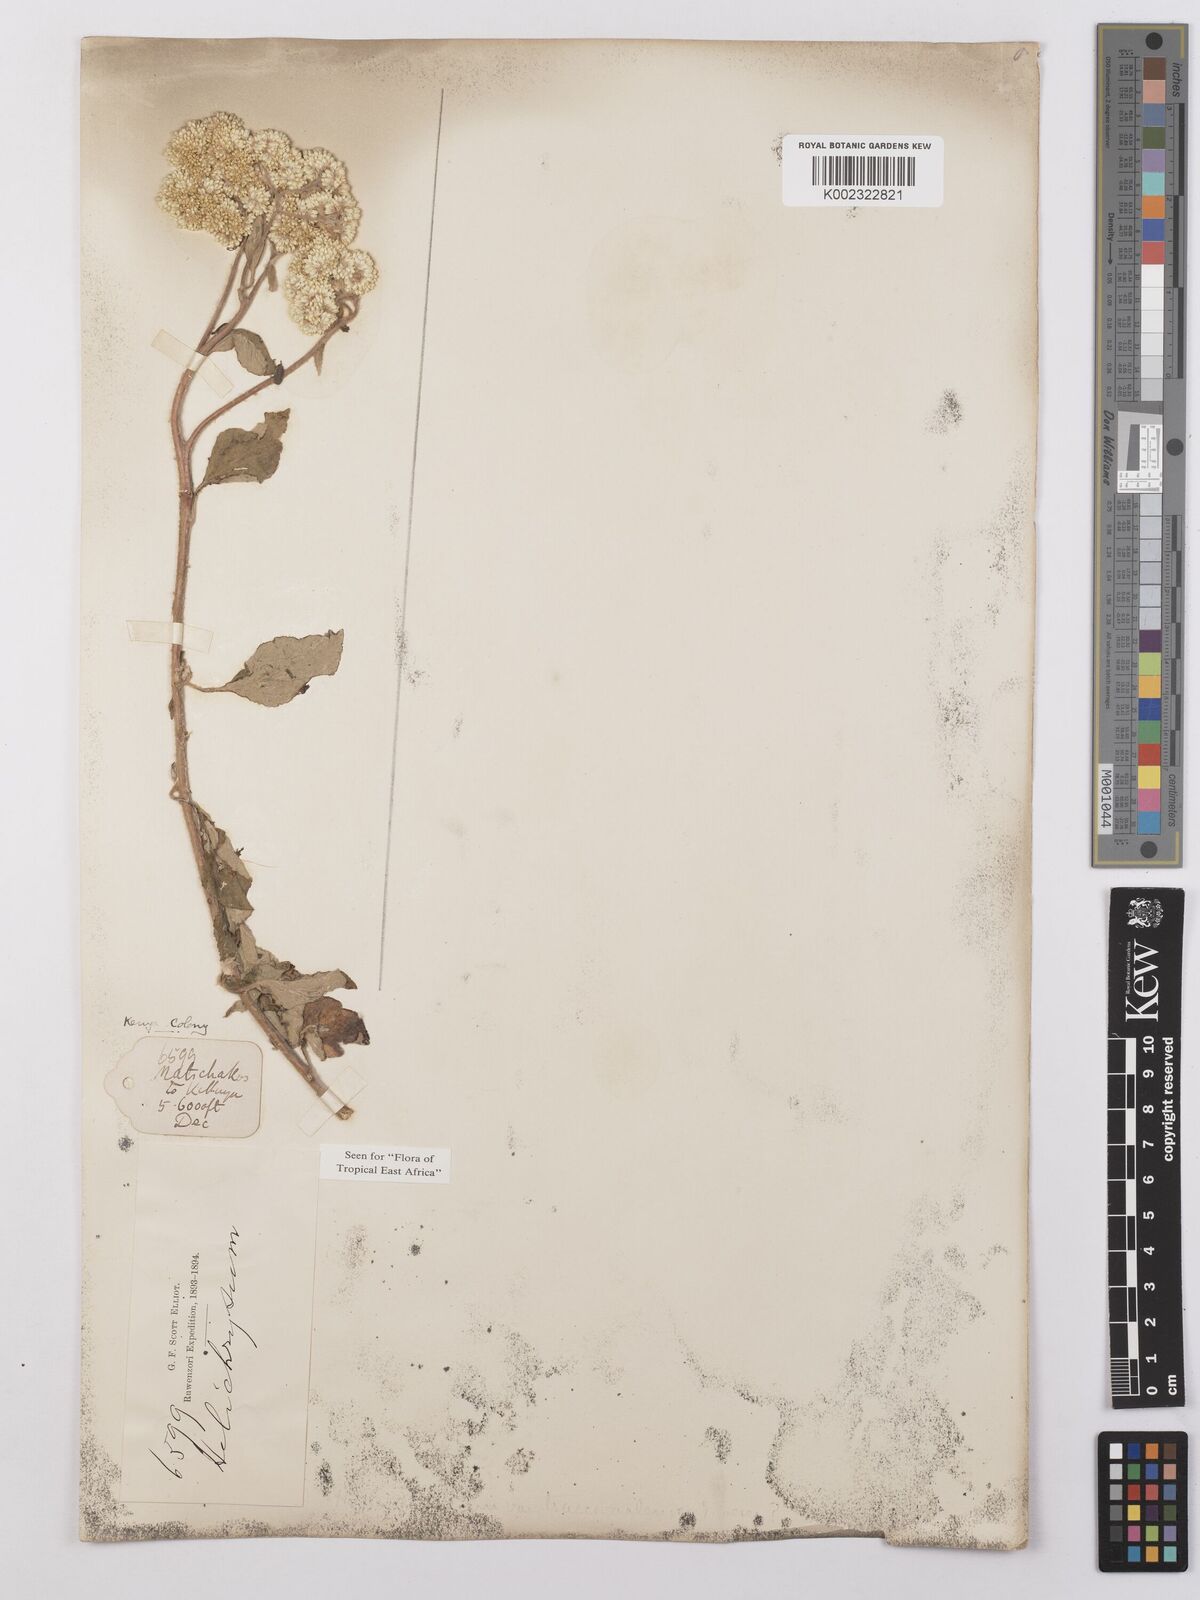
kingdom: Plantae
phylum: Tracheophyta
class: Magnoliopsida
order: Asterales
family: Asteraceae
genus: Helichrysum
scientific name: Helichrysum schimperi
